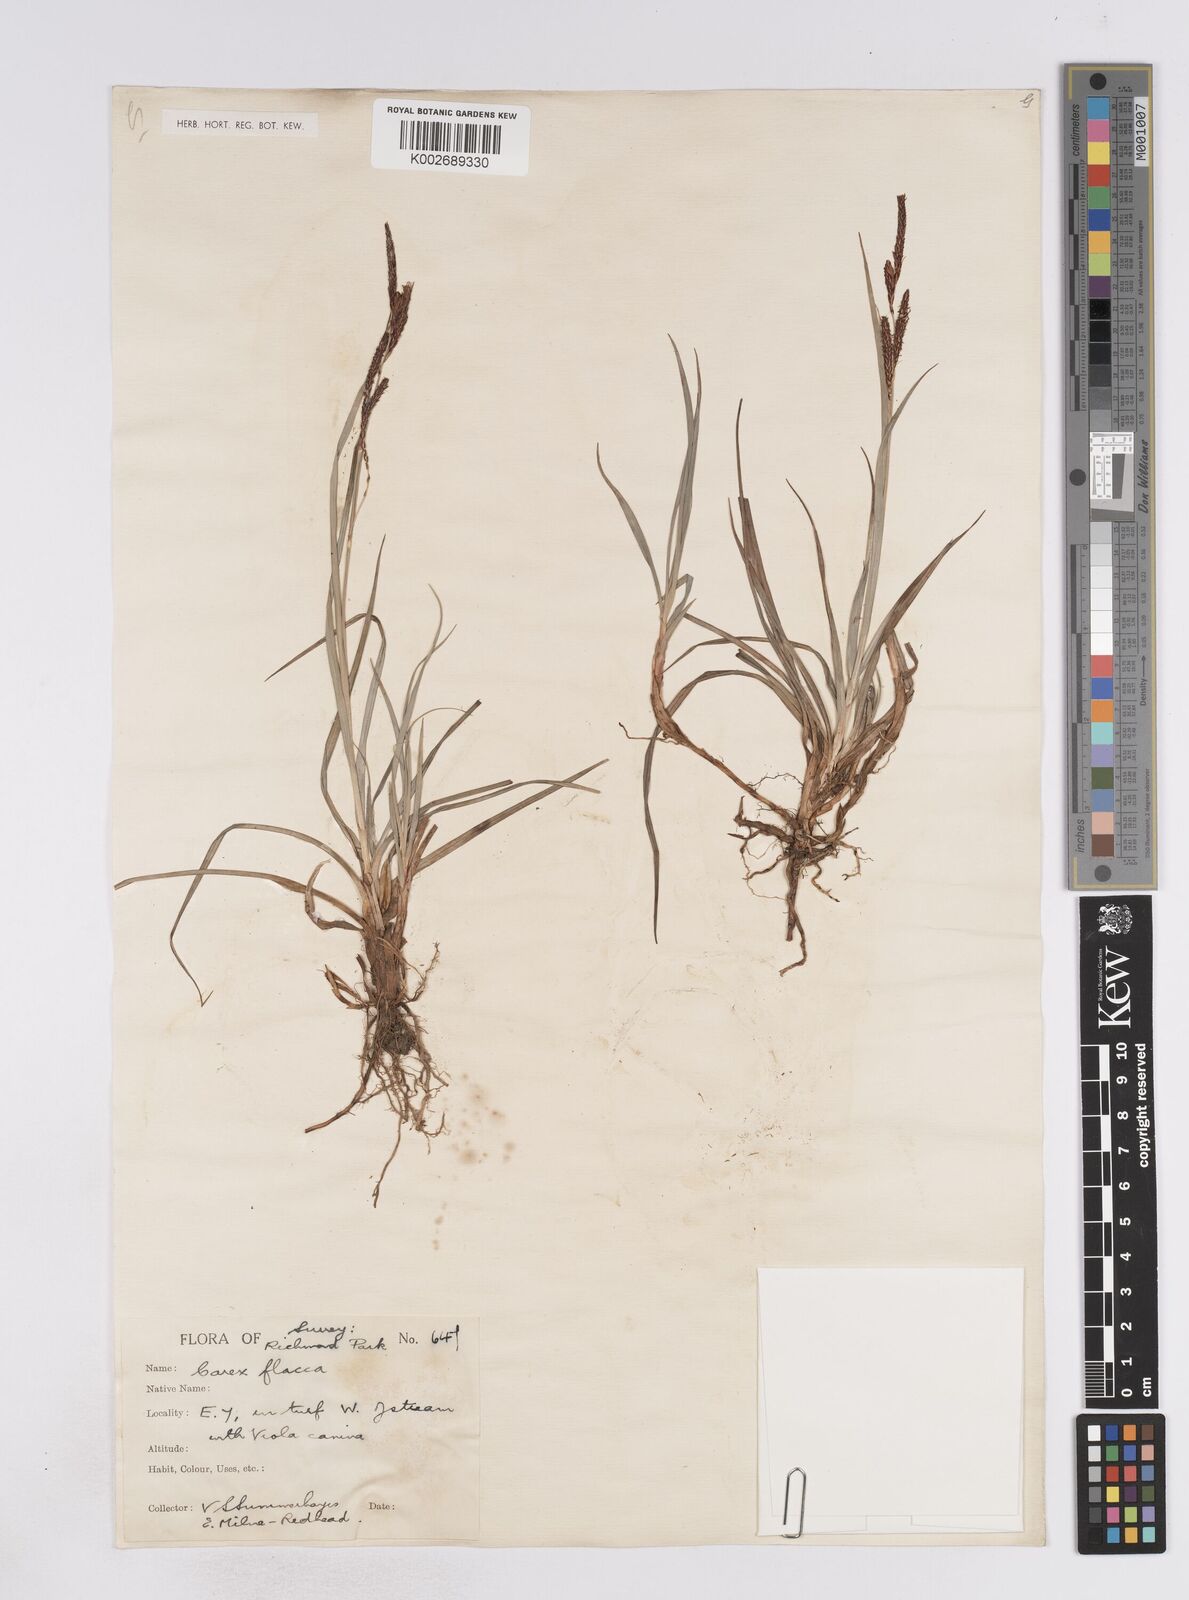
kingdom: Plantae
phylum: Tracheophyta
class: Liliopsida
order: Poales
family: Cyperaceae
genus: Carex
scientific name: Carex flacca
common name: Glaucous sedge
